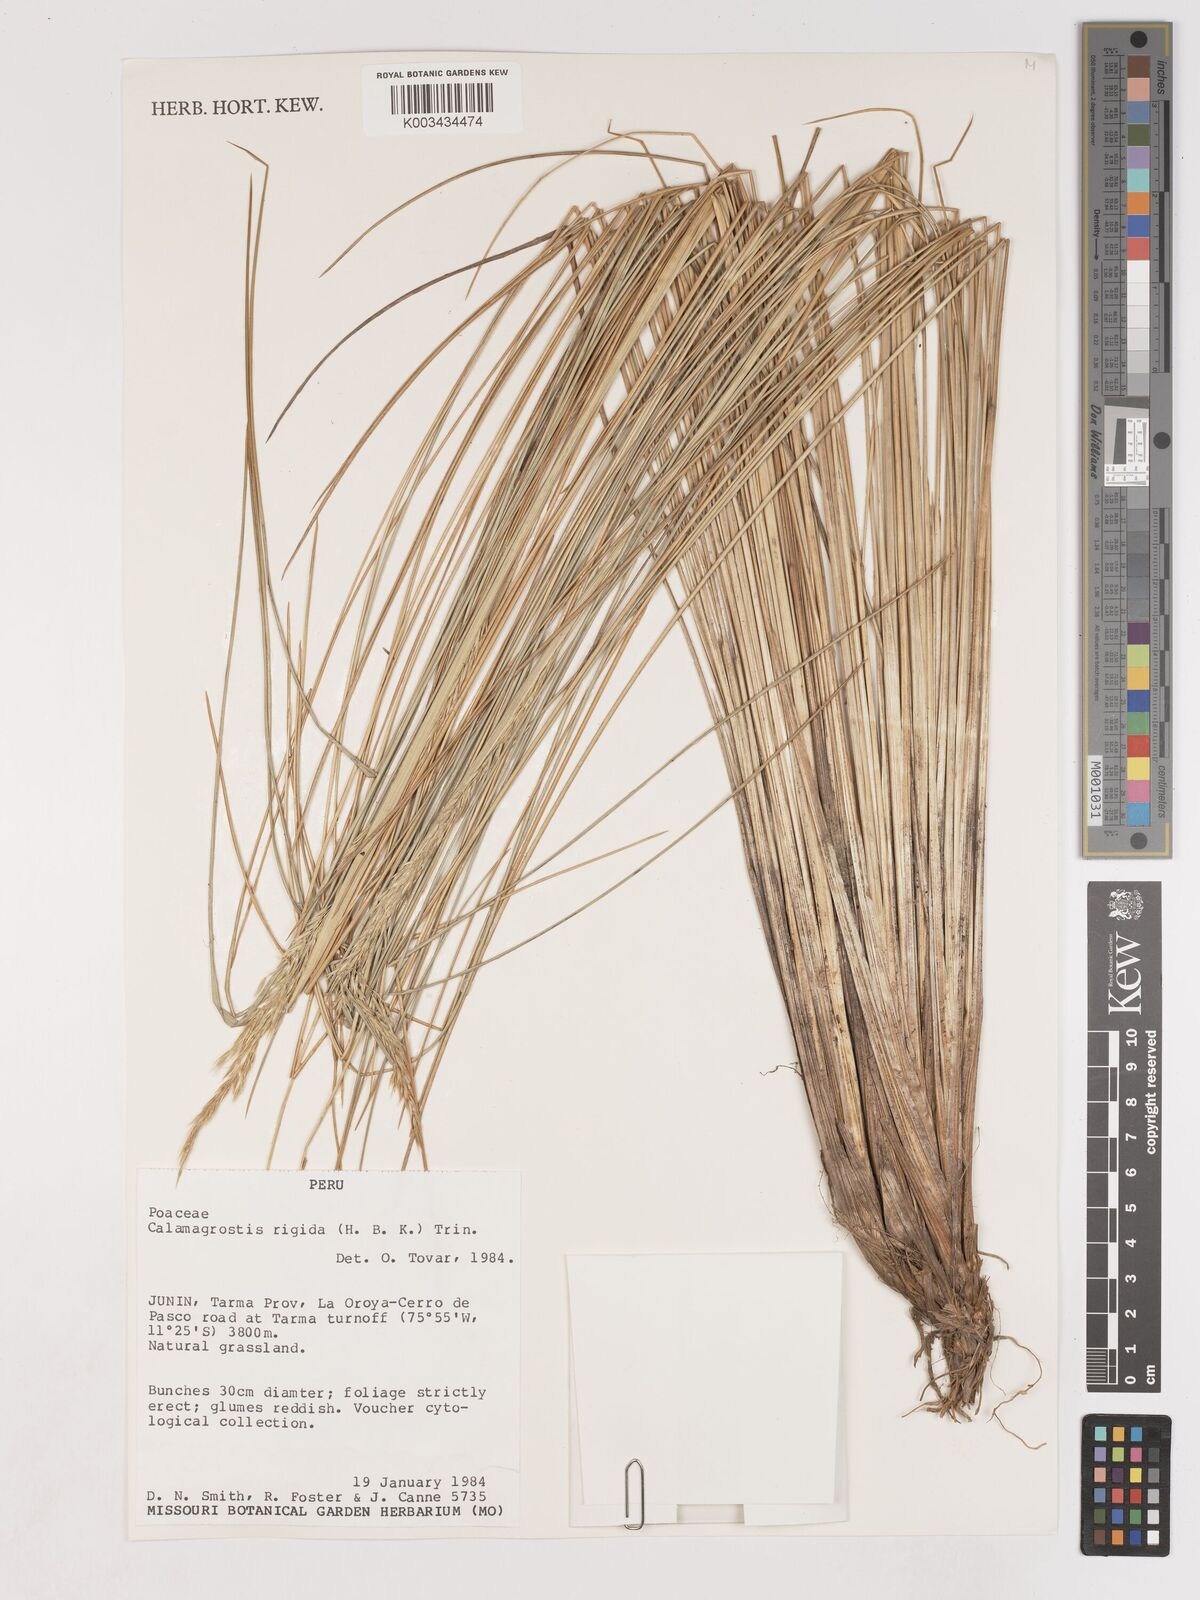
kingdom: Plantae
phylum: Tracheophyta
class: Liliopsida
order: Poales
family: Poaceae
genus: Cinnagrostis
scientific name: Cinnagrostis rigida
